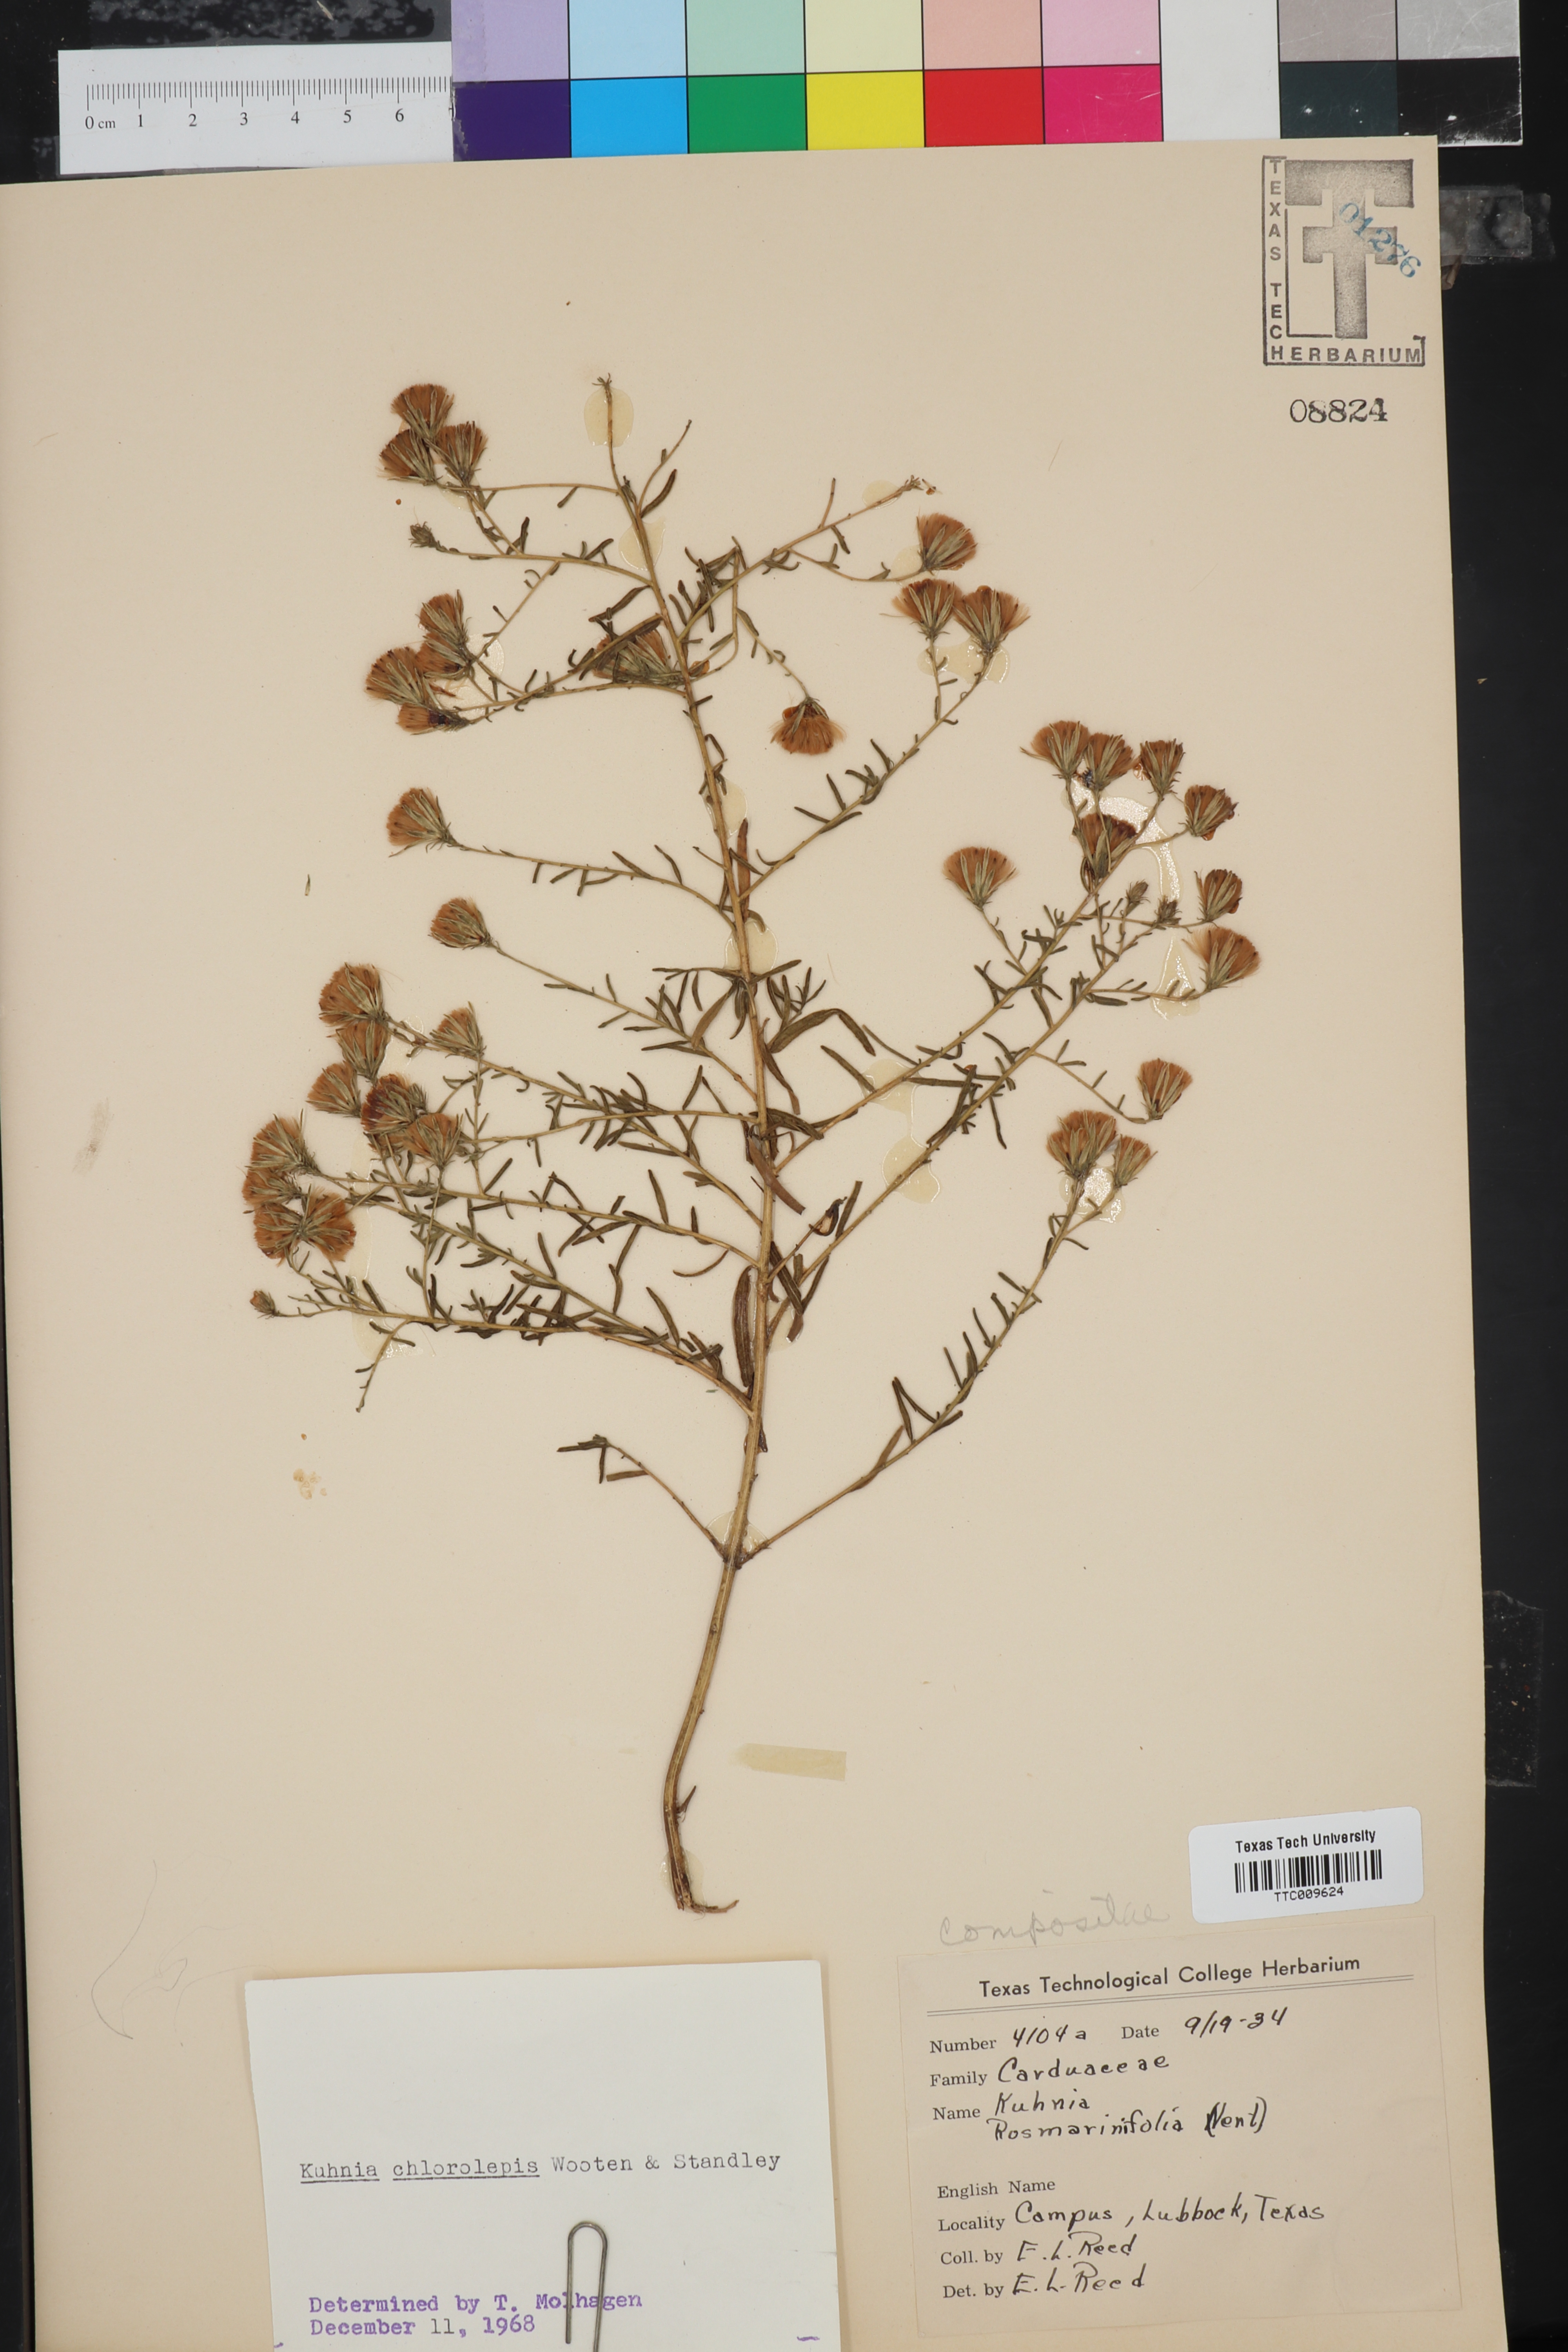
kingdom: Plantae
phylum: Tracheophyta
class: Magnoliopsida
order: Asterales
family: Asteraceae
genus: Brickellia
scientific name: Brickellia leptophylla
